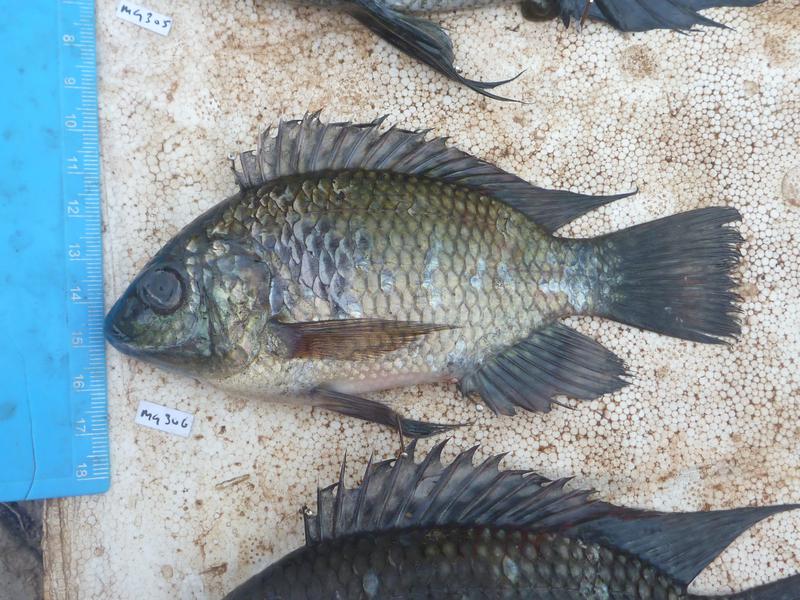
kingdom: Animalia
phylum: Chordata
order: Perciformes
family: Cichlidae
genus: Oreochromis
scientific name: Oreochromis leucostictus
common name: Blue spotted tilapia
